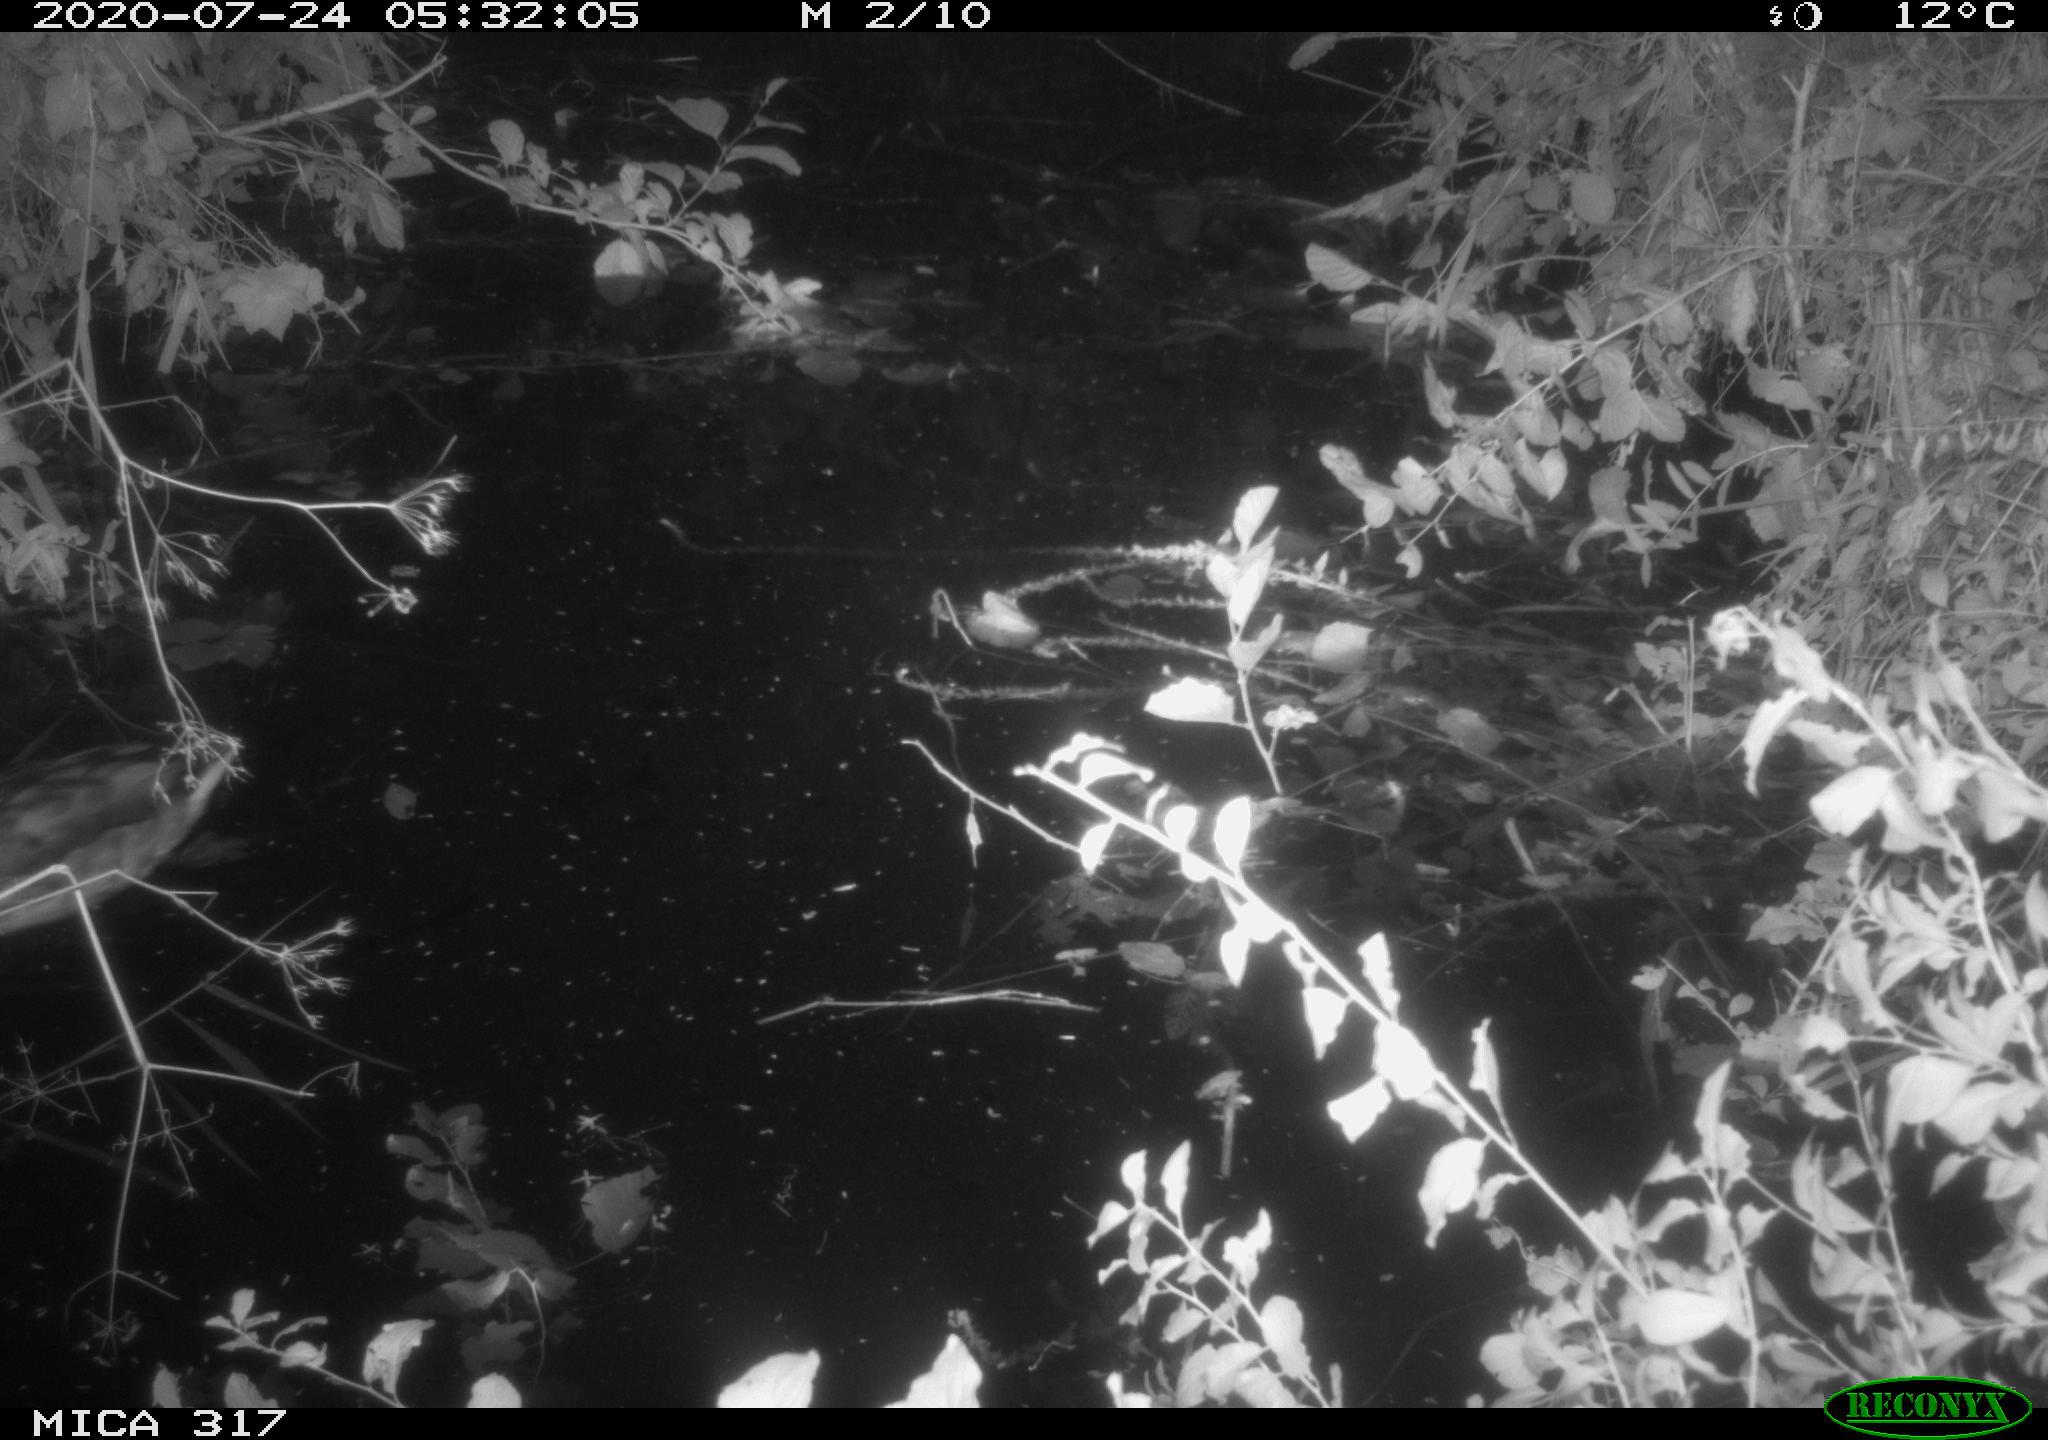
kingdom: Animalia
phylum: Chordata
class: Aves
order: Anseriformes
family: Anatidae
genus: Anas
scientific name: Anas platyrhynchos
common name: Mallard
